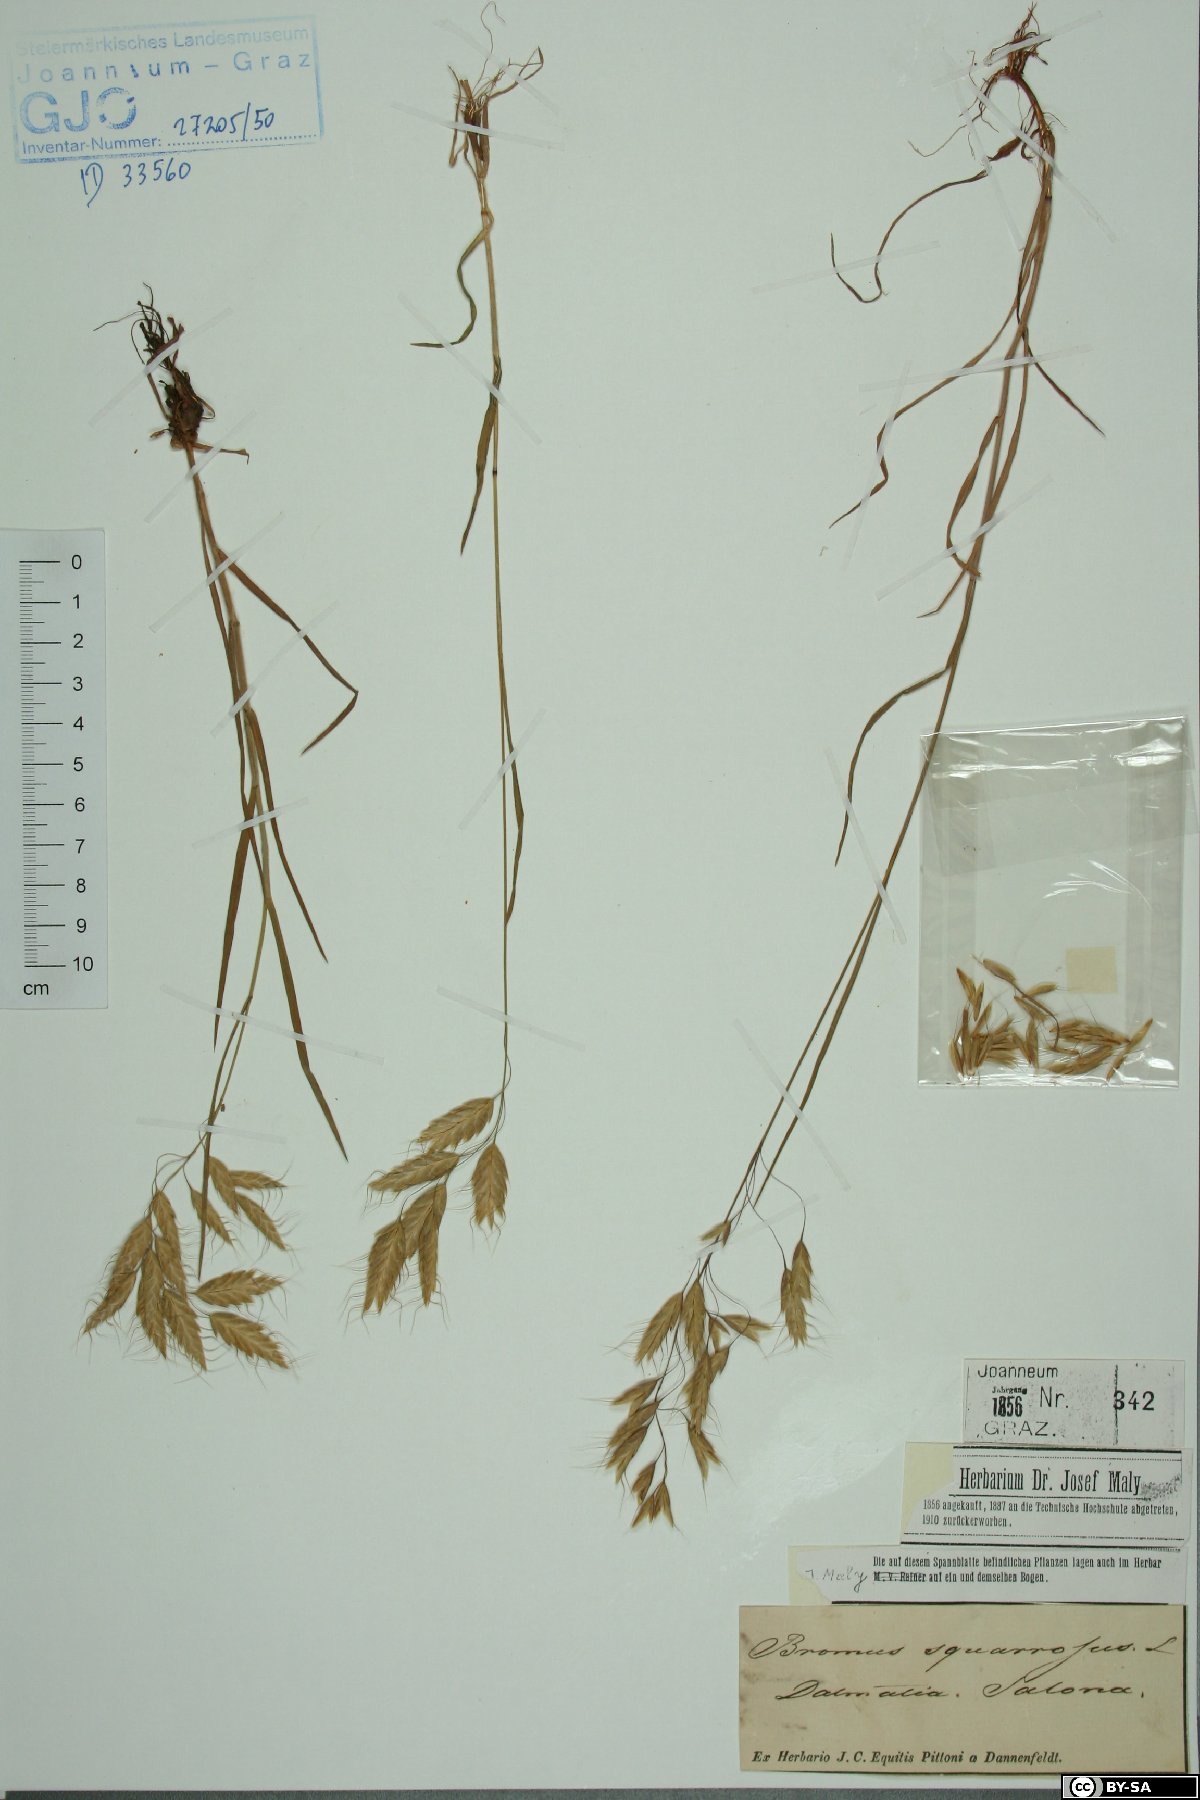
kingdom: Plantae
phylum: Tracheophyta
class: Liliopsida
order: Poales
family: Poaceae
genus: Bromus
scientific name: Bromus squarrosus
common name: Corn brome
